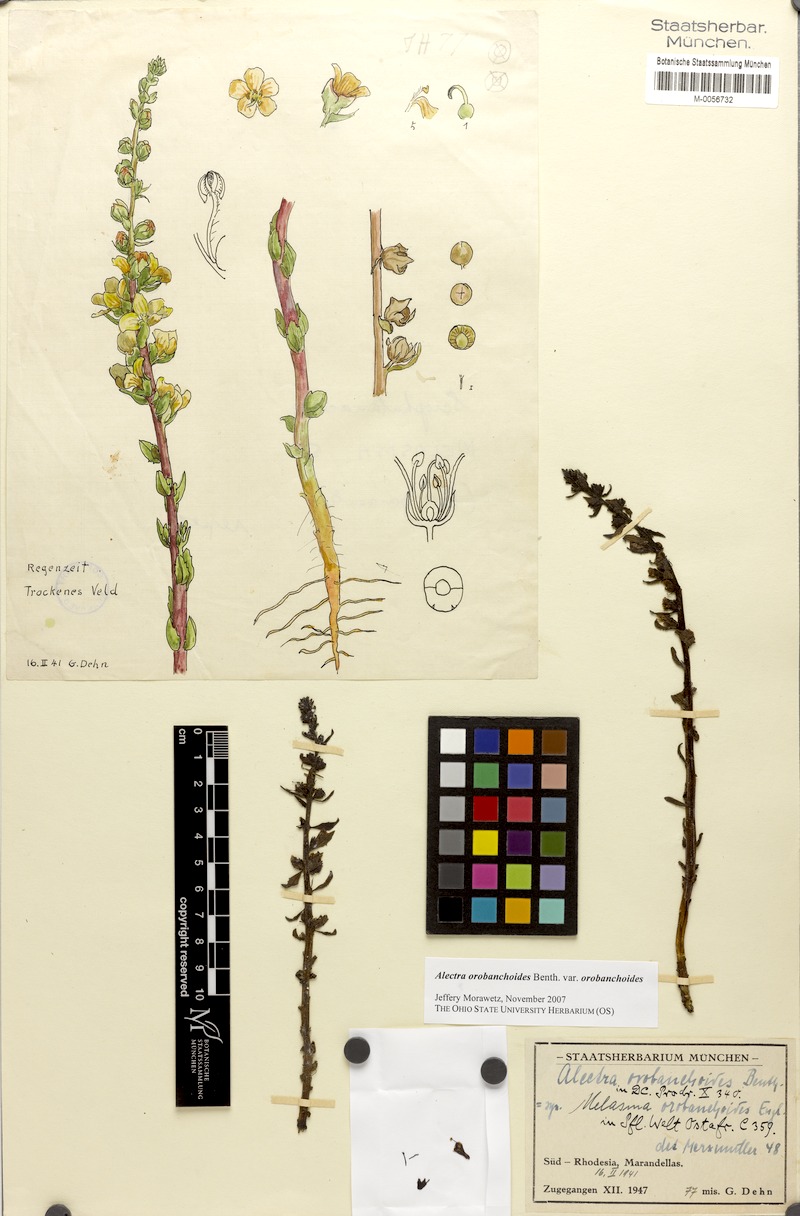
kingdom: Plantae
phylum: Tracheophyta
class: Magnoliopsida
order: Lamiales
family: Orobanchaceae
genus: Alectra
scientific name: Alectra orobanchoides
